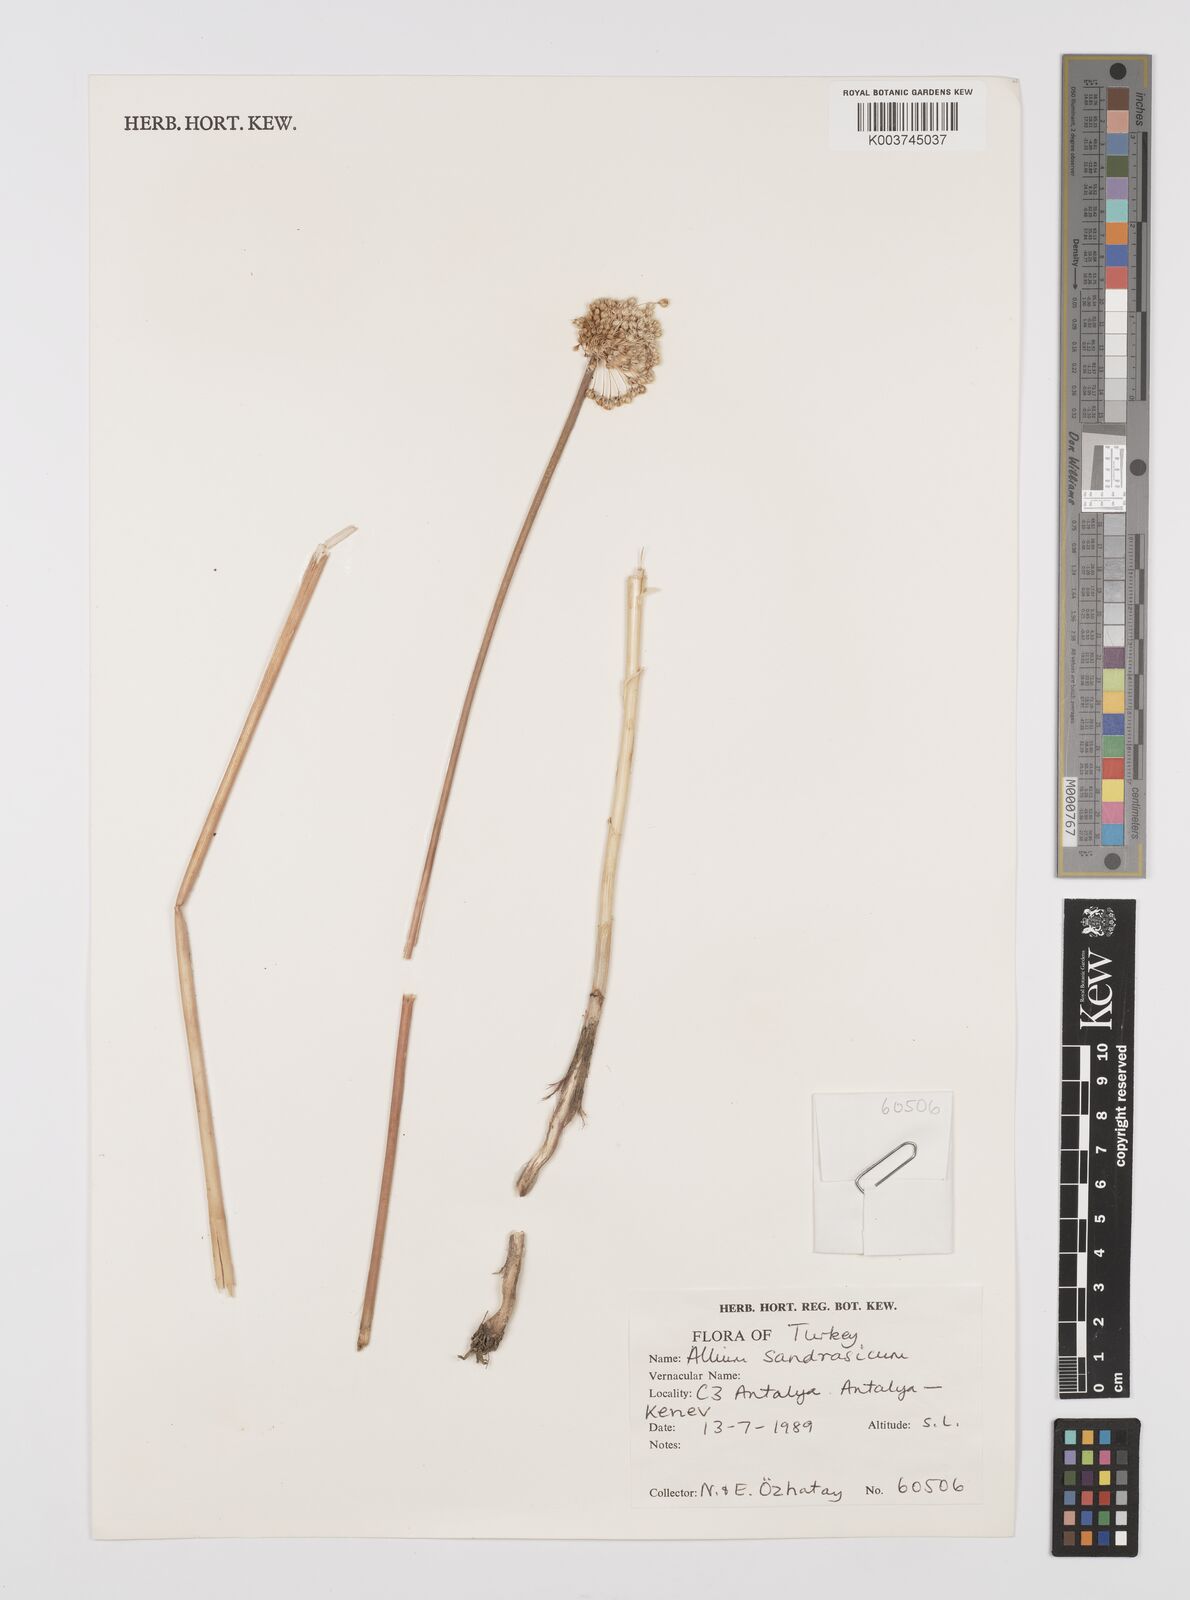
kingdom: Plantae
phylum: Tracheophyta
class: Liliopsida
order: Asparagales
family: Amaryllidaceae
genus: Allium
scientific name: Allium sandrasicum
